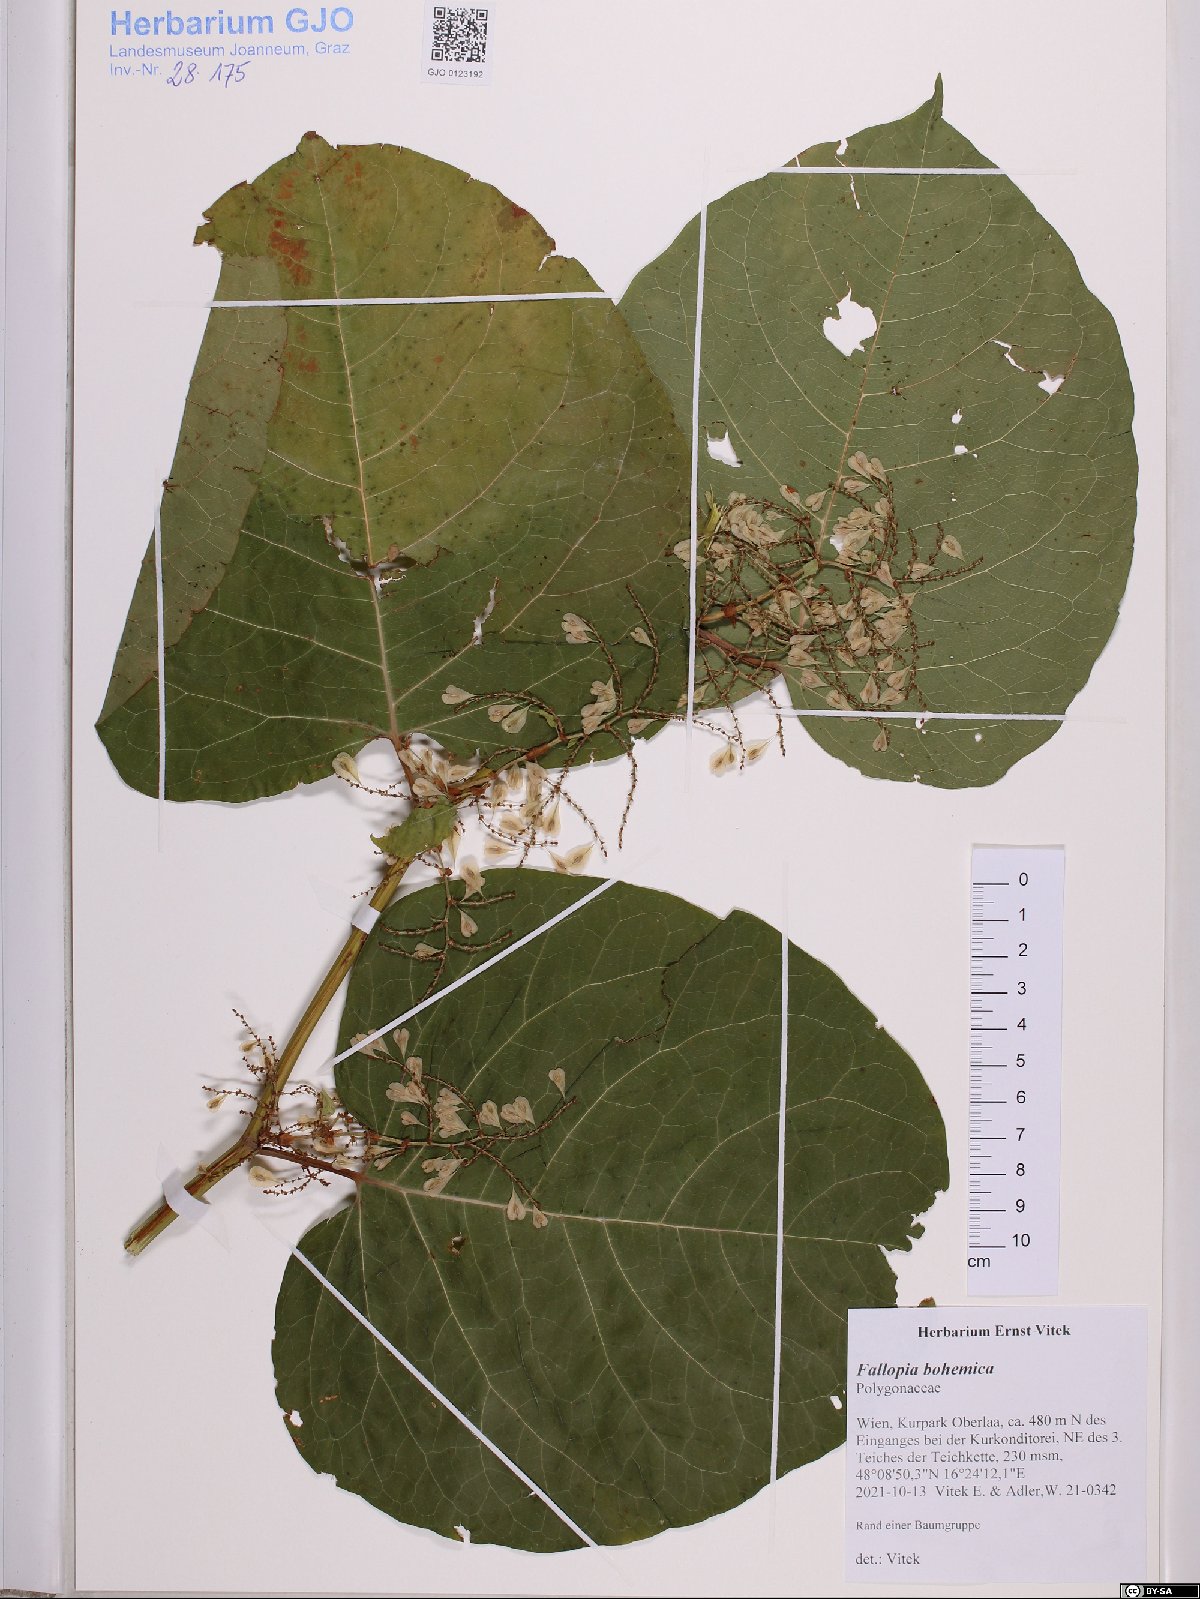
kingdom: Plantae
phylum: Tracheophyta
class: Magnoliopsida
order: Caryophyllales
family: Polygonaceae
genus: Reynoutria
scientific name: Reynoutria bohemica
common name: Bohemian knotweed
